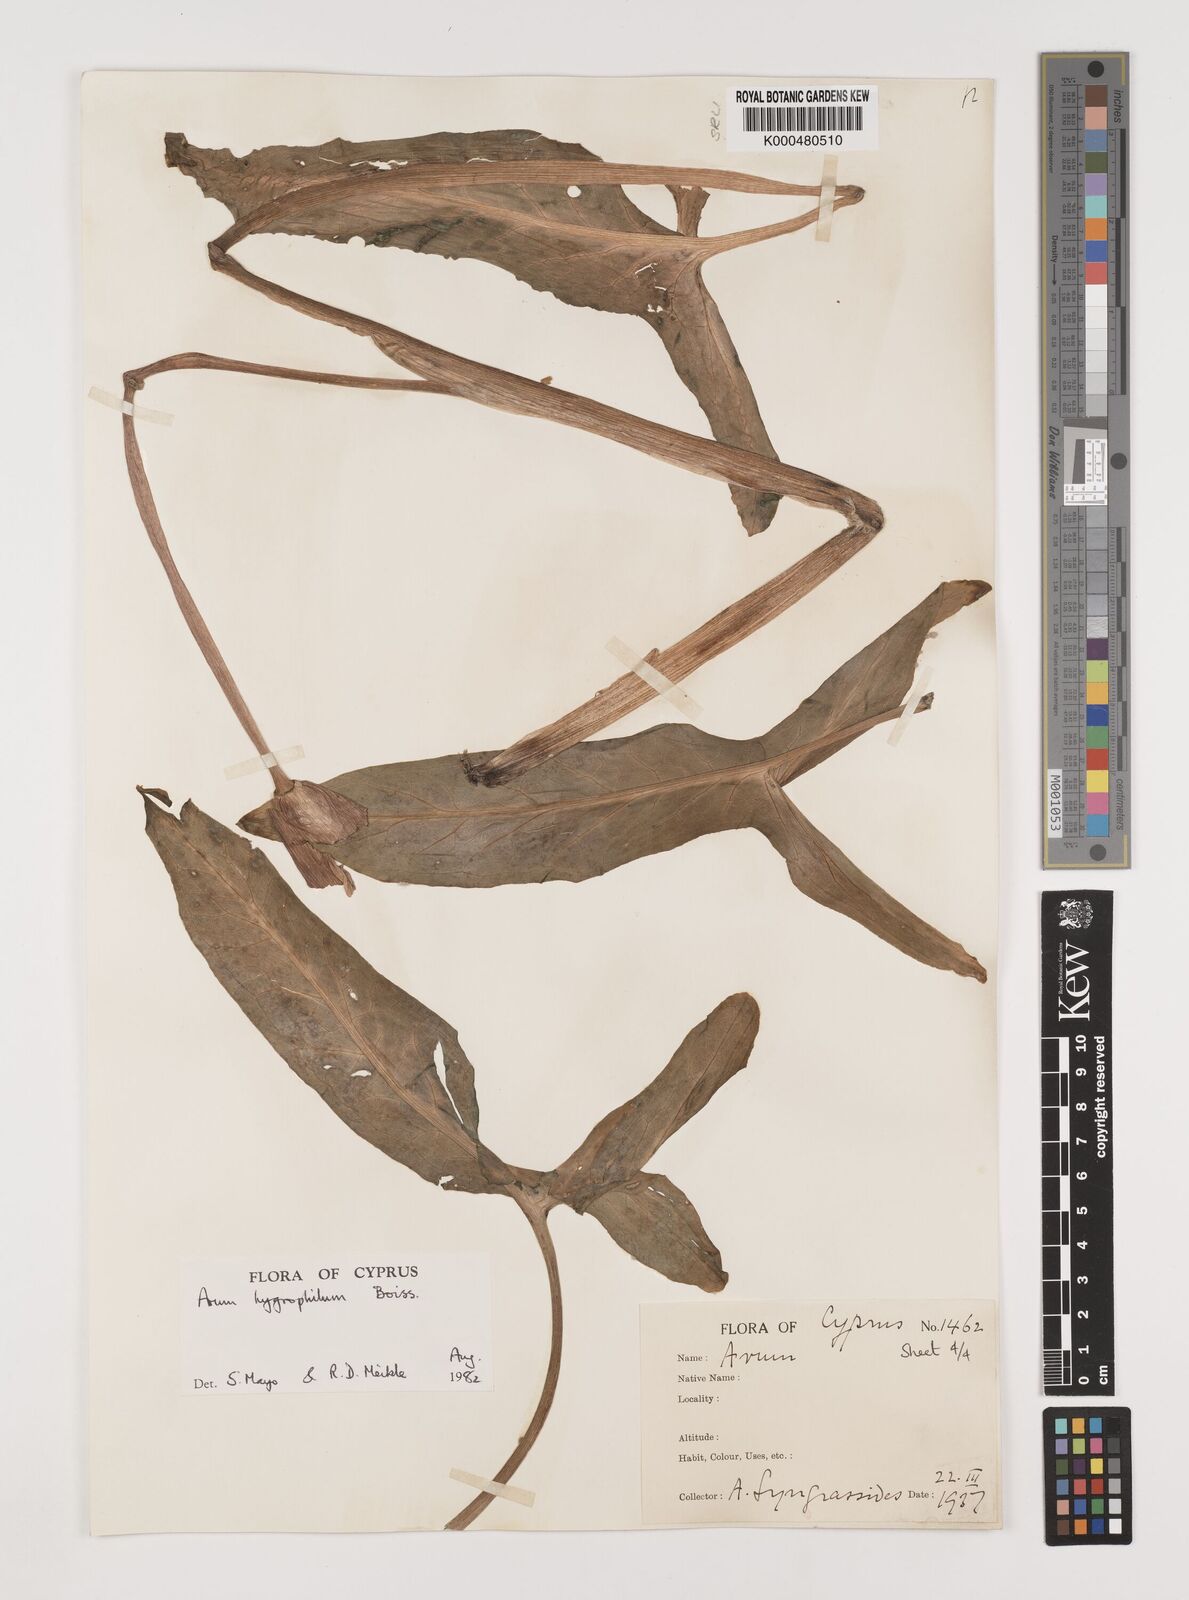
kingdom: Plantae
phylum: Tracheophyta
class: Liliopsida
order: Alismatales
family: Araceae
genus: Arum
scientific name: Arum hygrophilum
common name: Water arum
